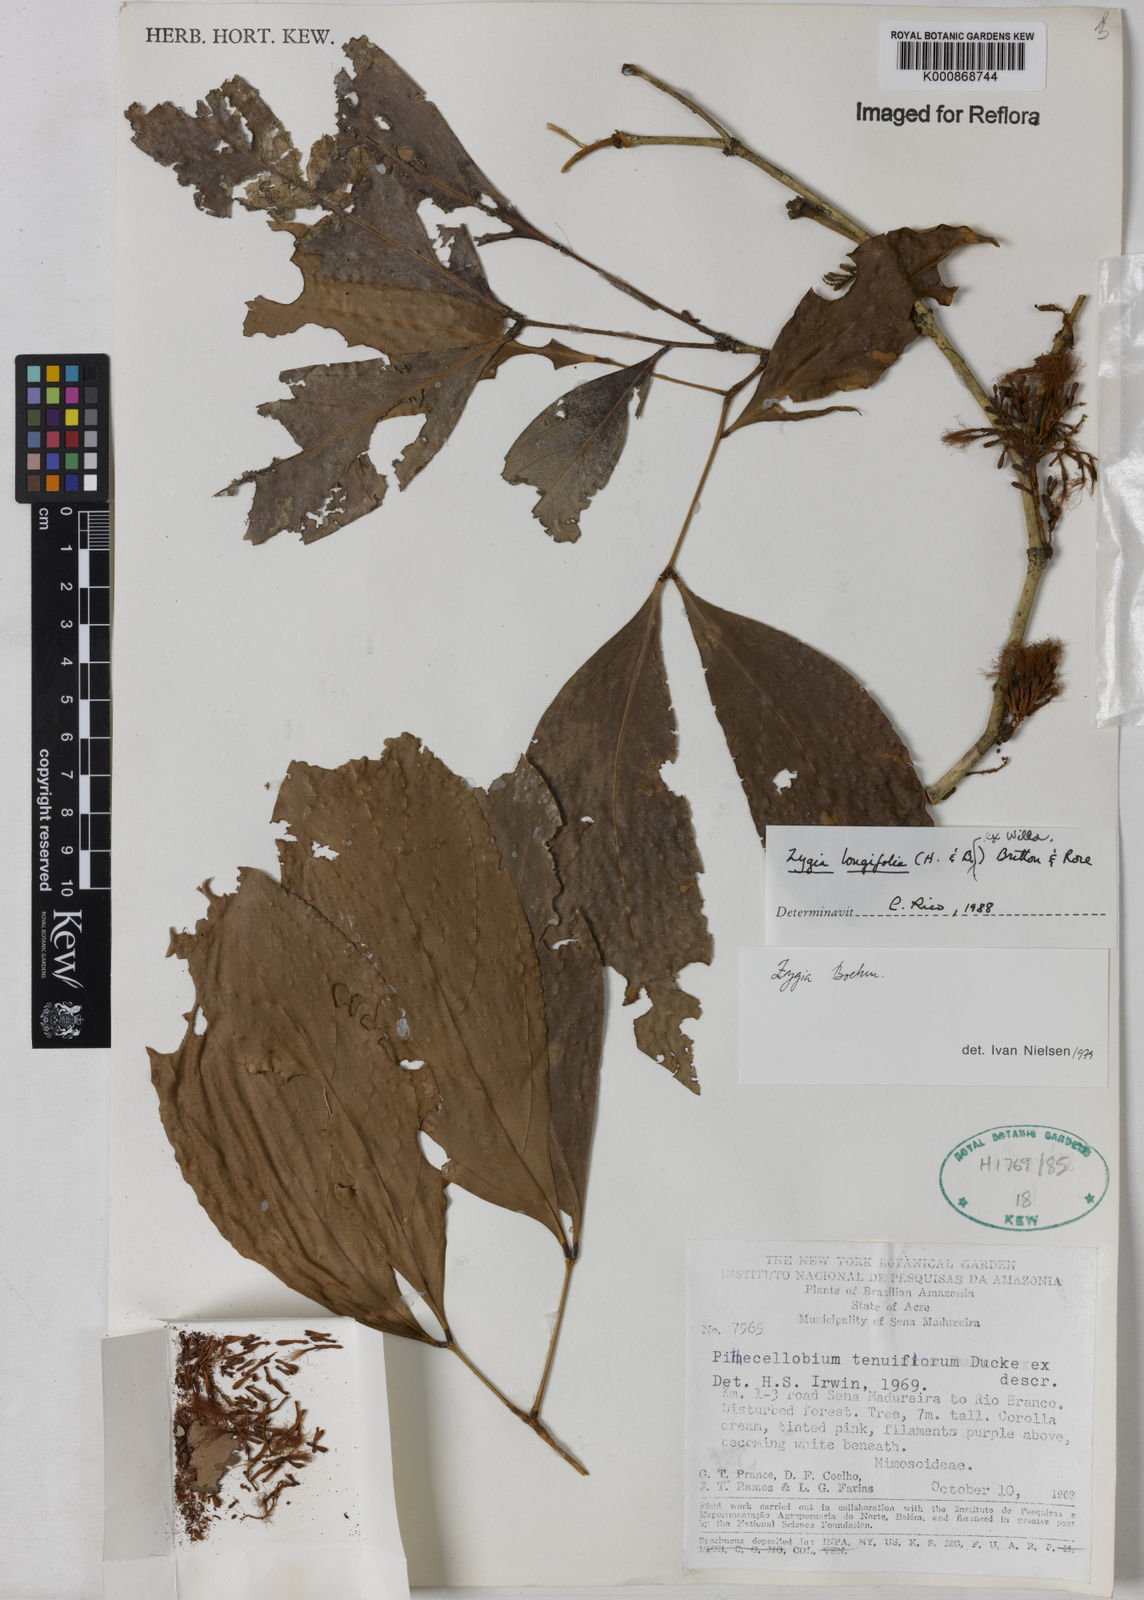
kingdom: Plantae
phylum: Tracheophyta
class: Magnoliopsida
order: Fabales
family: Fabaceae
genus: Zygia
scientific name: Zygia longifolia
